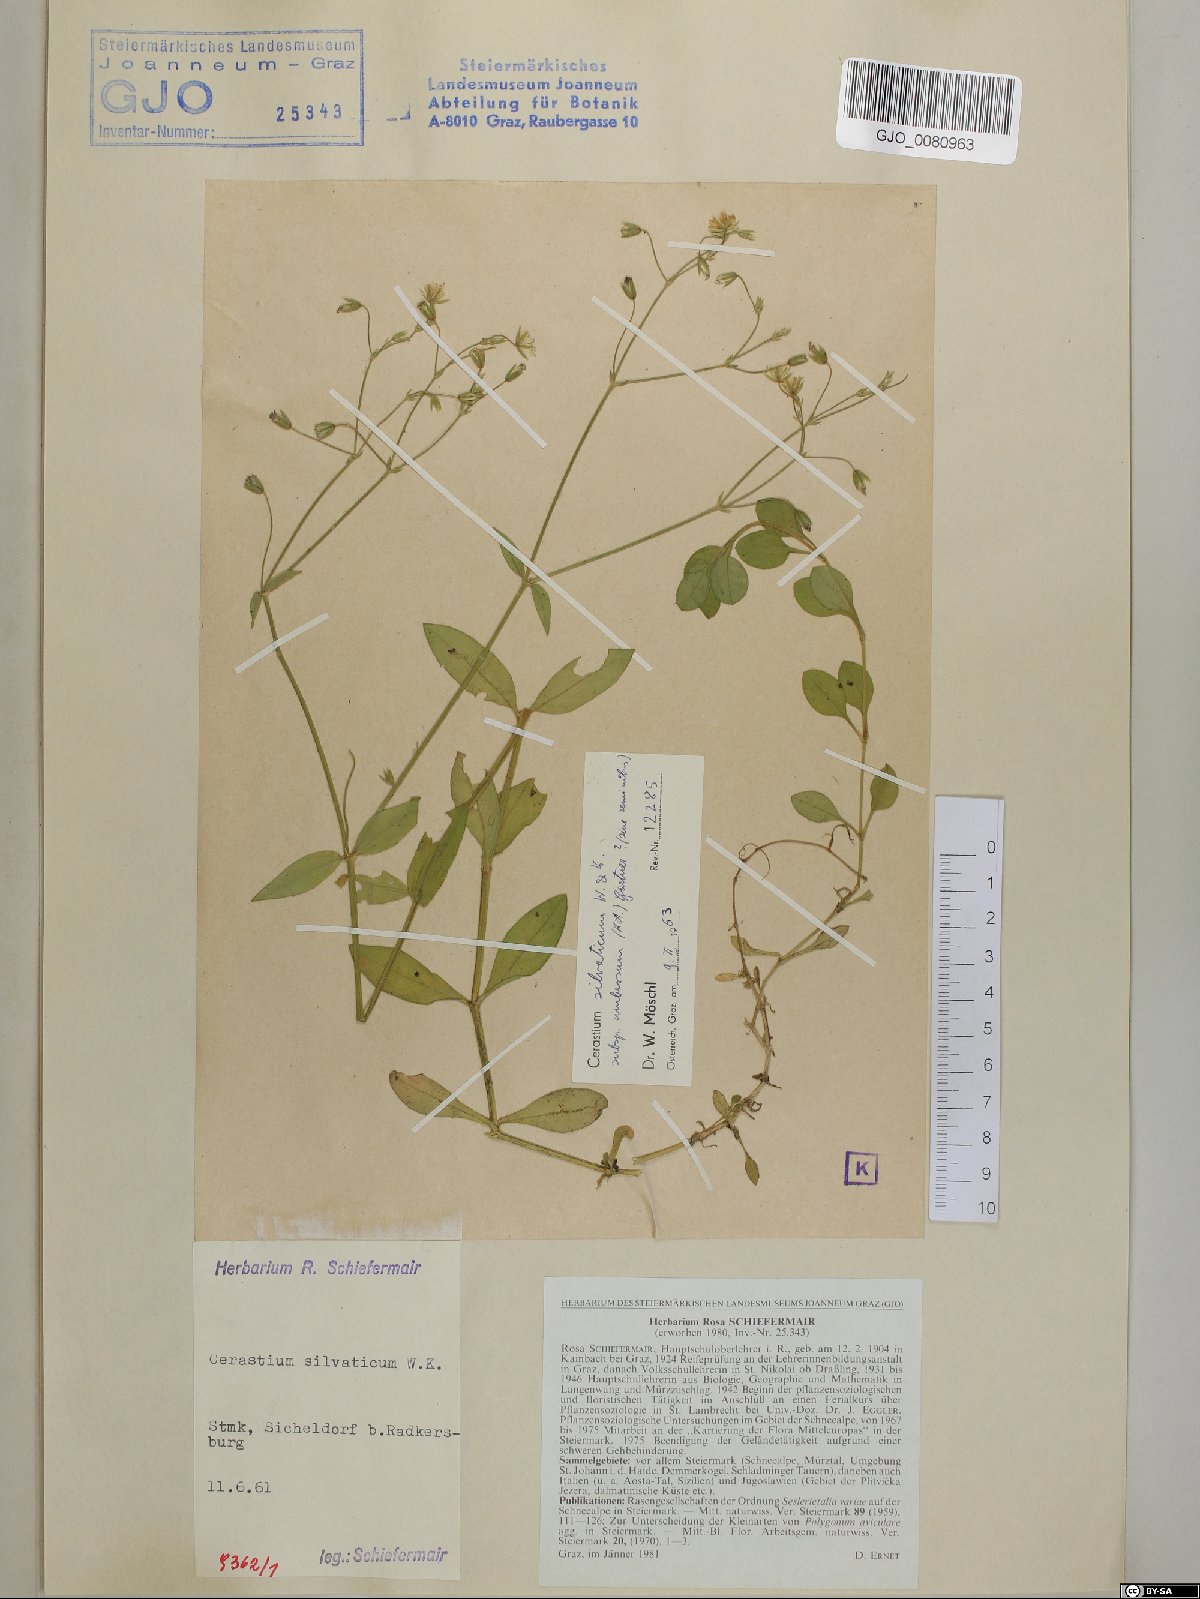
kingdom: Plantae
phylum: Tracheophyta
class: Magnoliopsida
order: Caryophyllales
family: Caryophyllaceae
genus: Cerastium
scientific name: Cerastium sylvaticum
